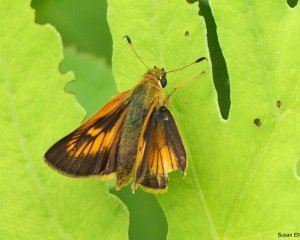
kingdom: Animalia
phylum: Arthropoda
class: Insecta
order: Lepidoptera
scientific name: Lepidoptera
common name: Butterflies
